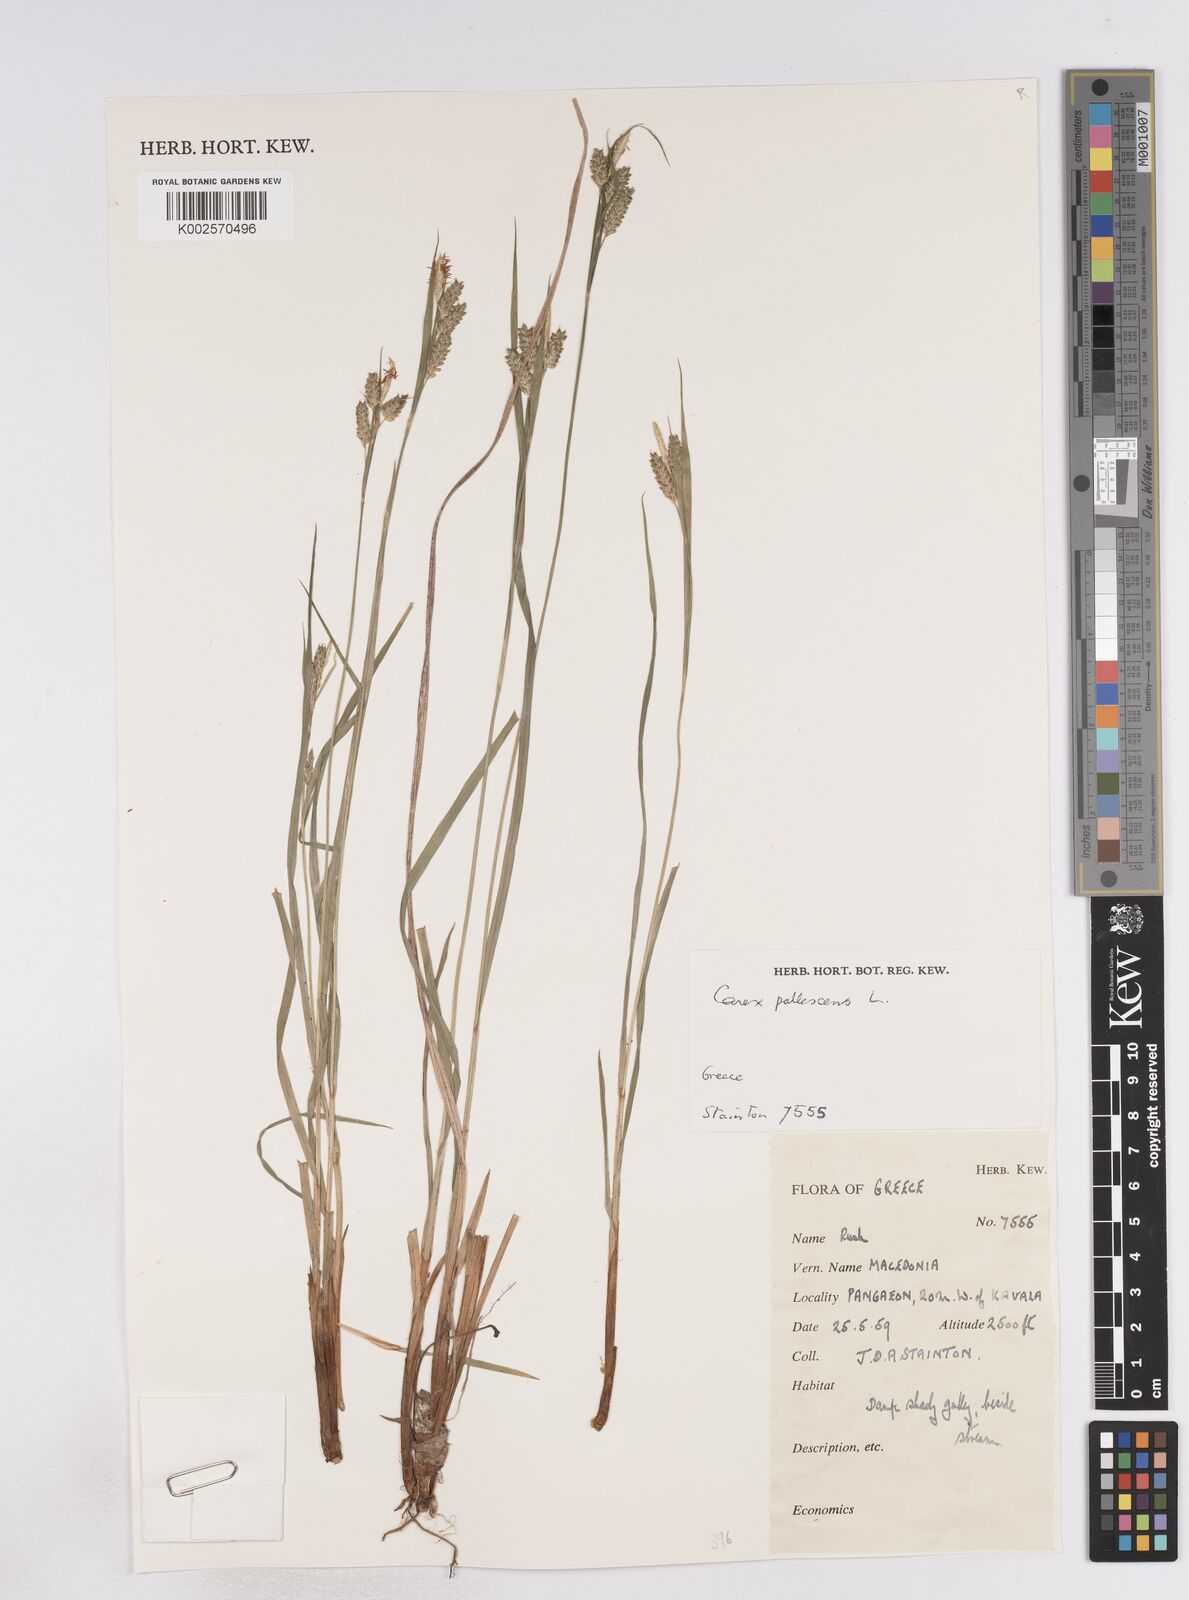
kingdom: Plantae
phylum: Tracheophyta
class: Liliopsida
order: Poales
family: Cyperaceae
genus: Carex
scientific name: Carex pallescens
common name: Pale sedge
